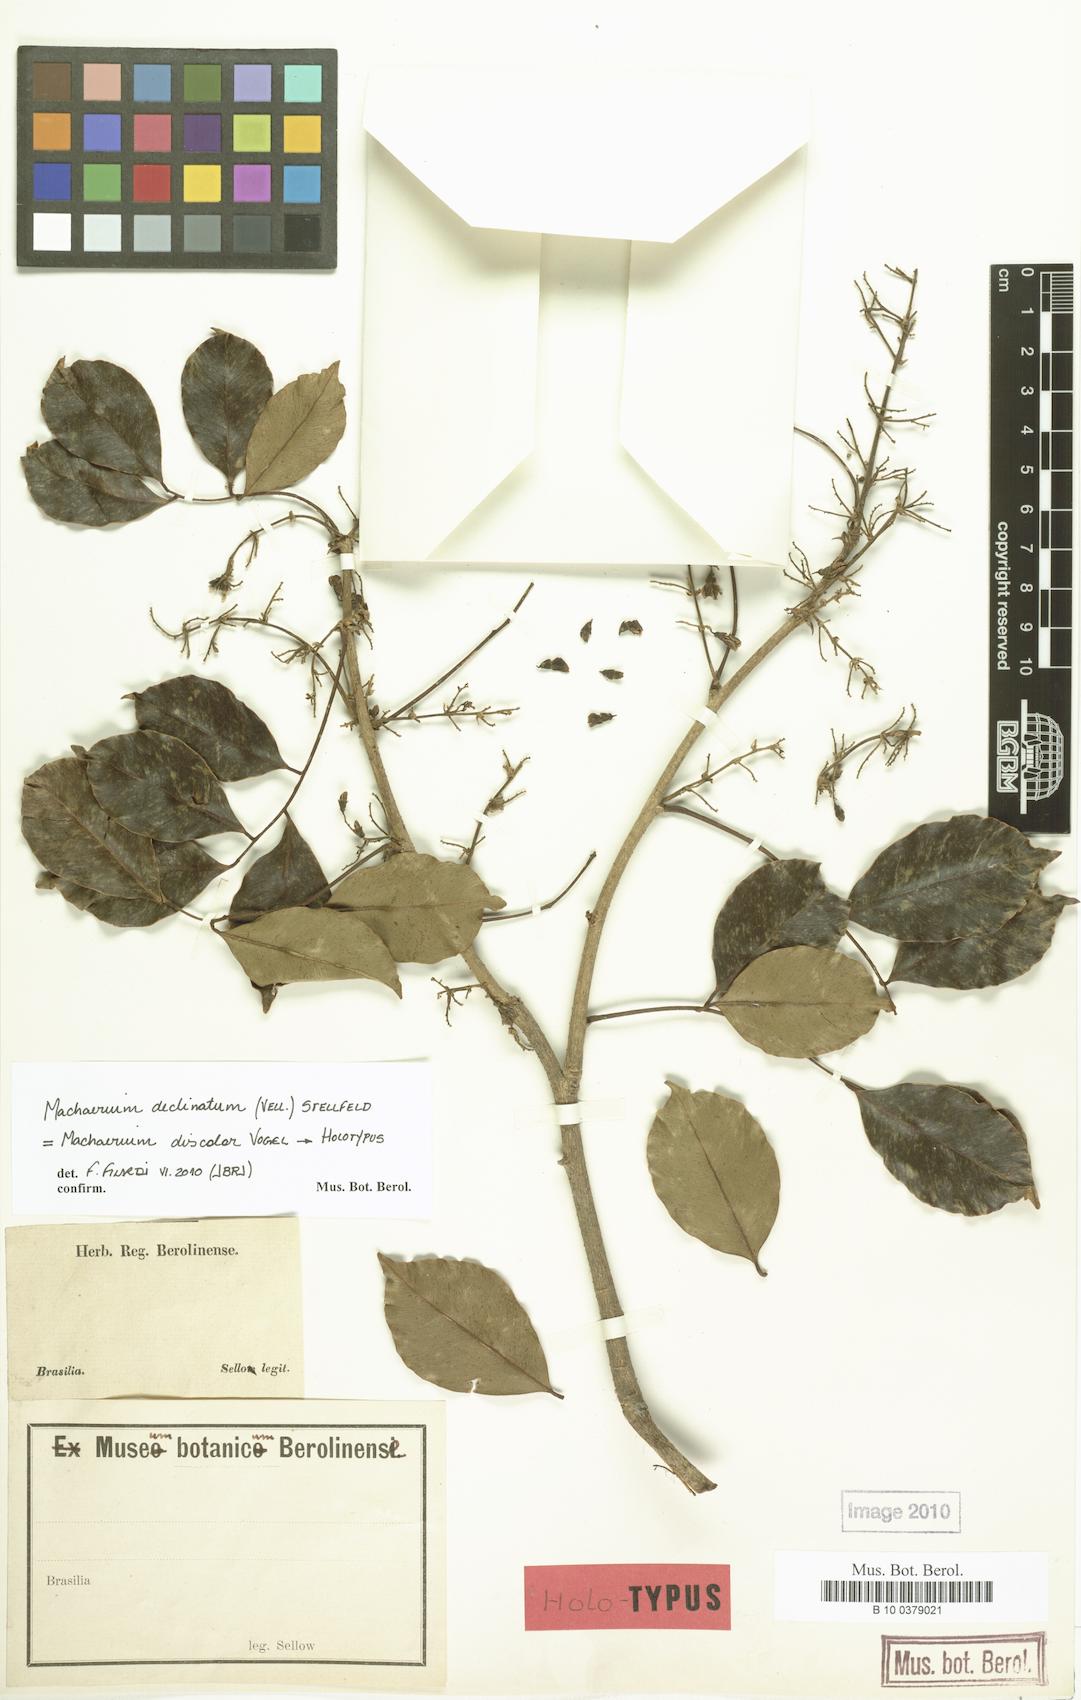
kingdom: Plantae
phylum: Tracheophyta
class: Magnoliopsida
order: Fabales
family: Fabaceae
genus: Machaerium
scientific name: Machaerium declinatum
